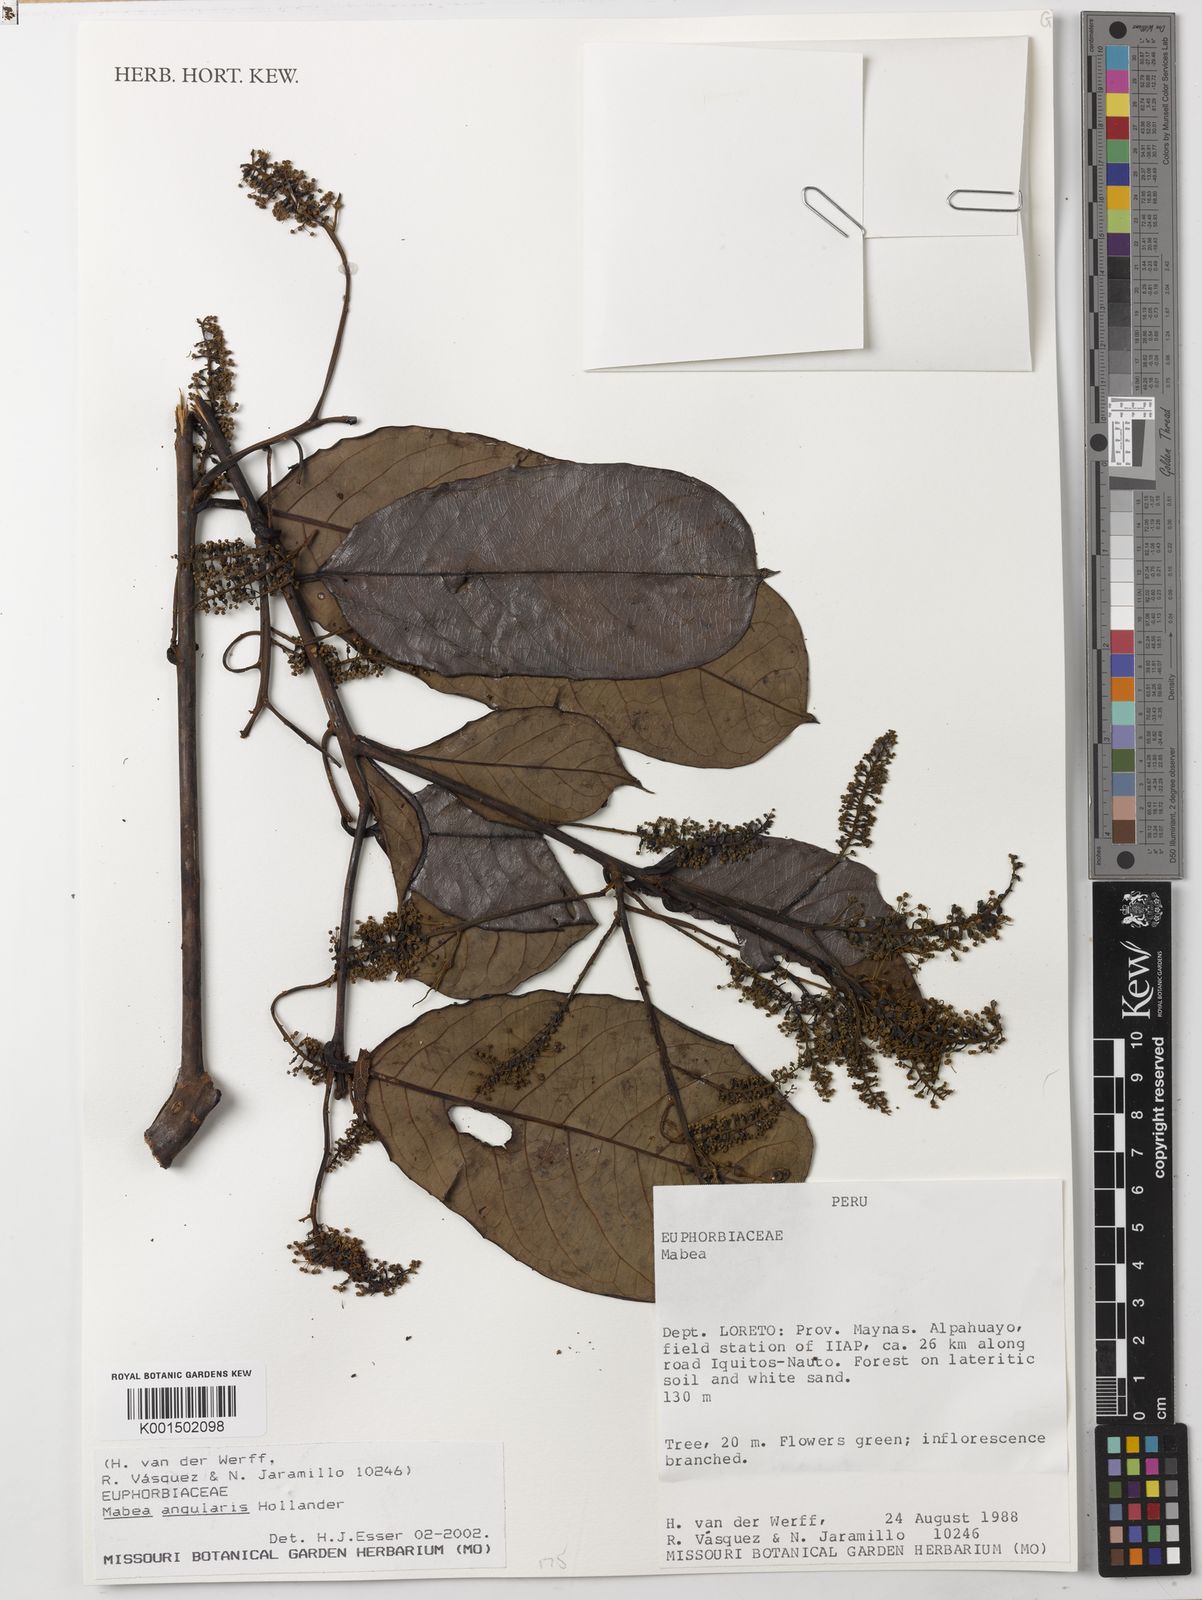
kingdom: Plantae
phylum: Tracheophyta
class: Magnoliopsida
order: Malpighiales
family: Euphorbiaceae
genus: Mabea
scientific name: Mabea angularis
